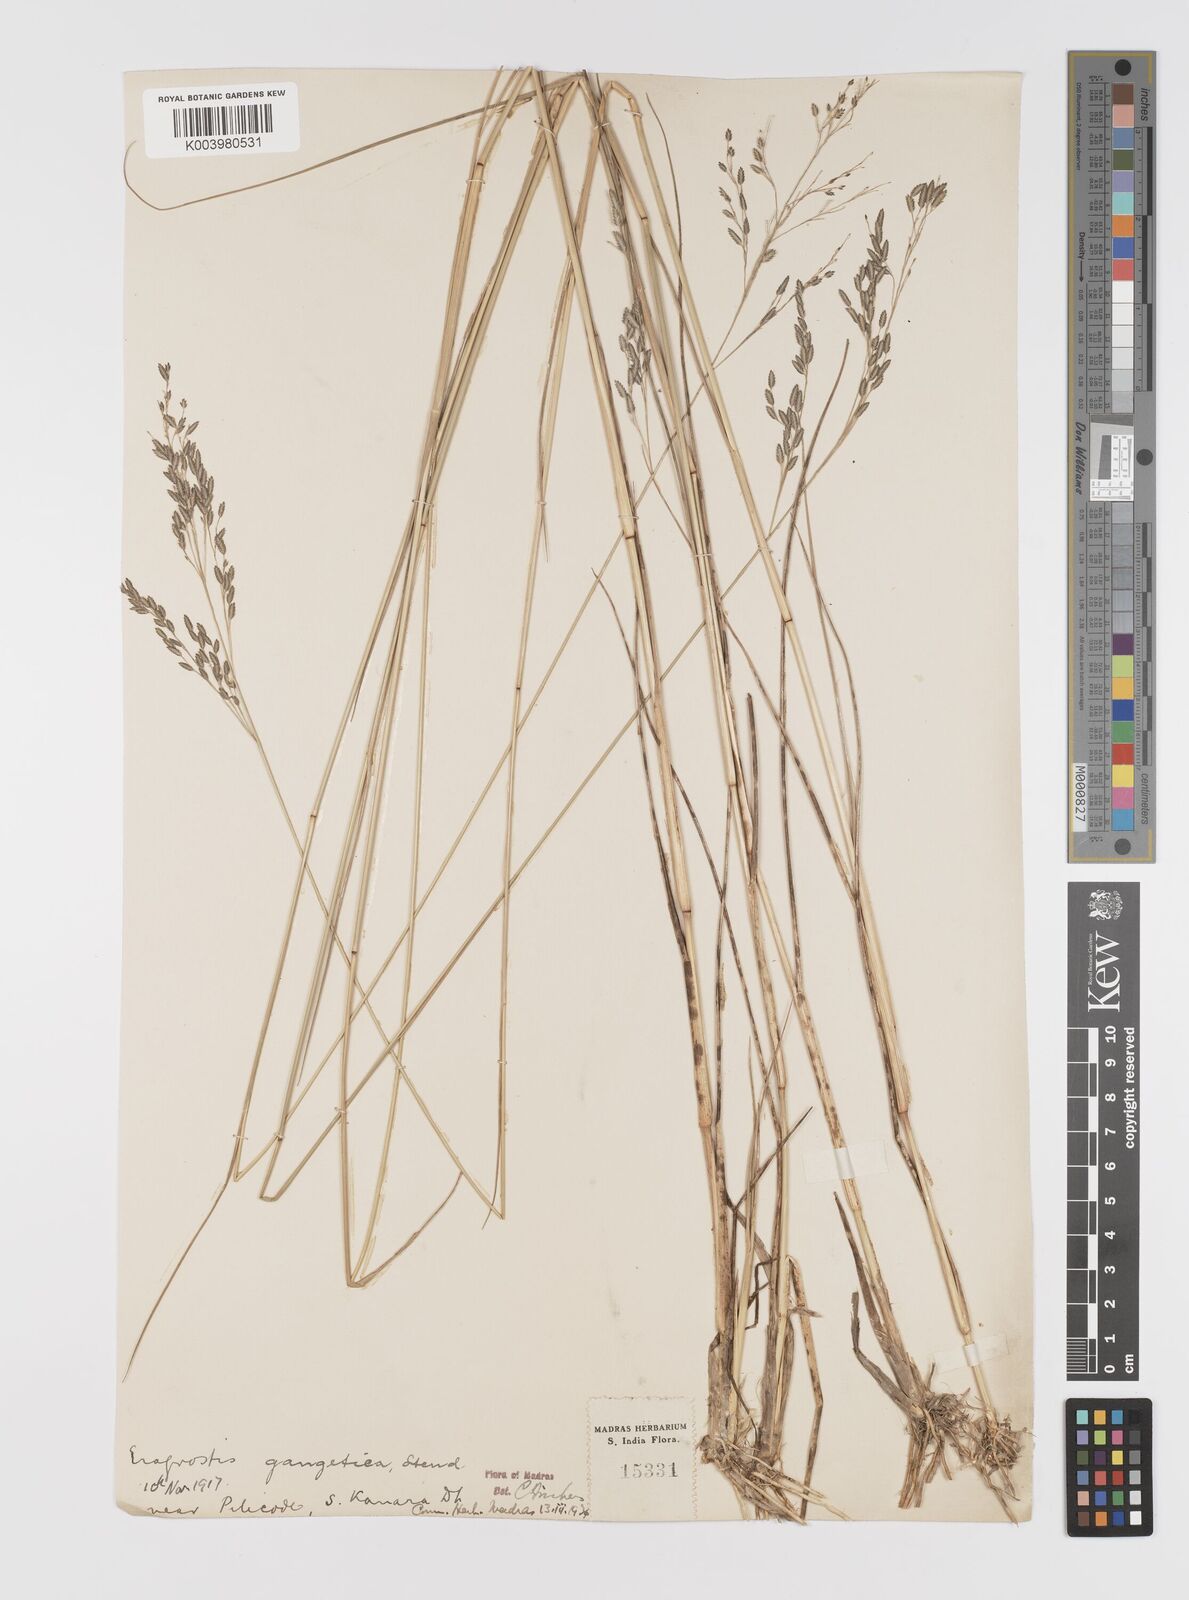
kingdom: Plantae
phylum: Tracheophyta
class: Liliopsida
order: Poales
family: Poaceae
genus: Eragrostis
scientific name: Eragrostis
